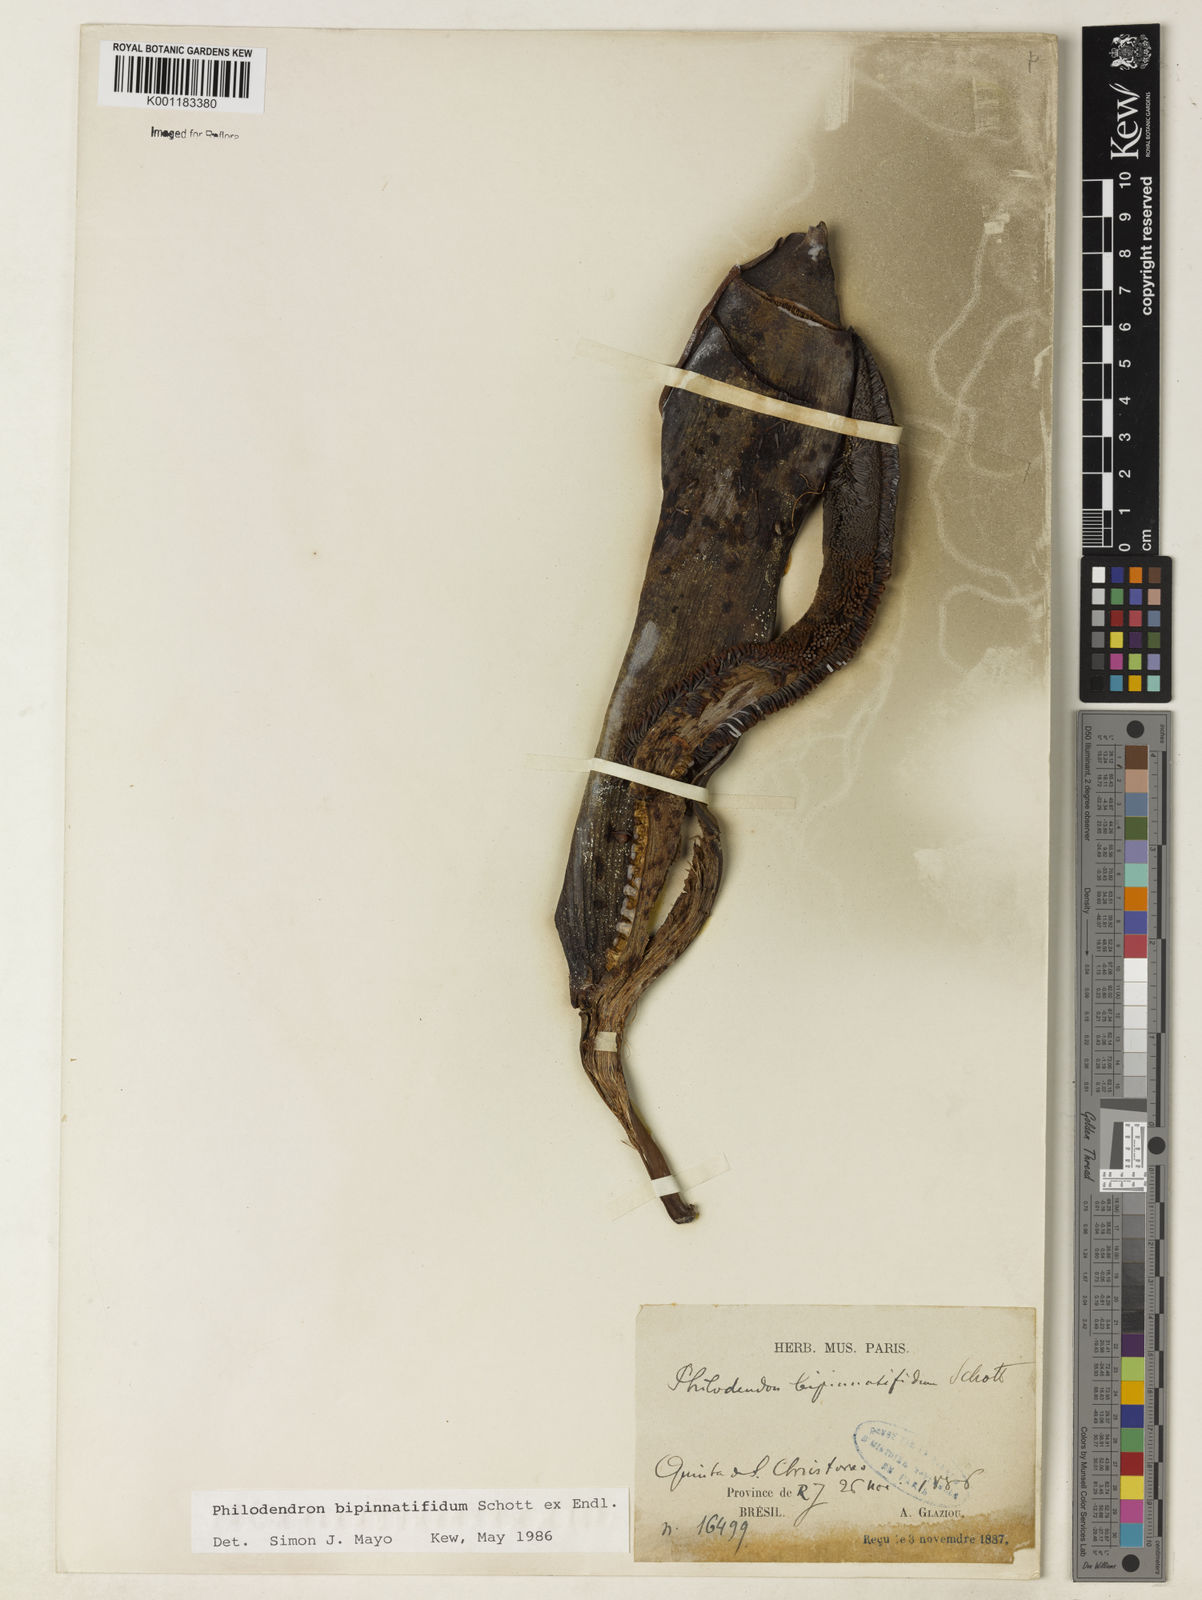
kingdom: Plantae
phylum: Tracheophyta
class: Liliopsida
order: Alismatales
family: Araceae
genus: Philodendron
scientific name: Philodendron
